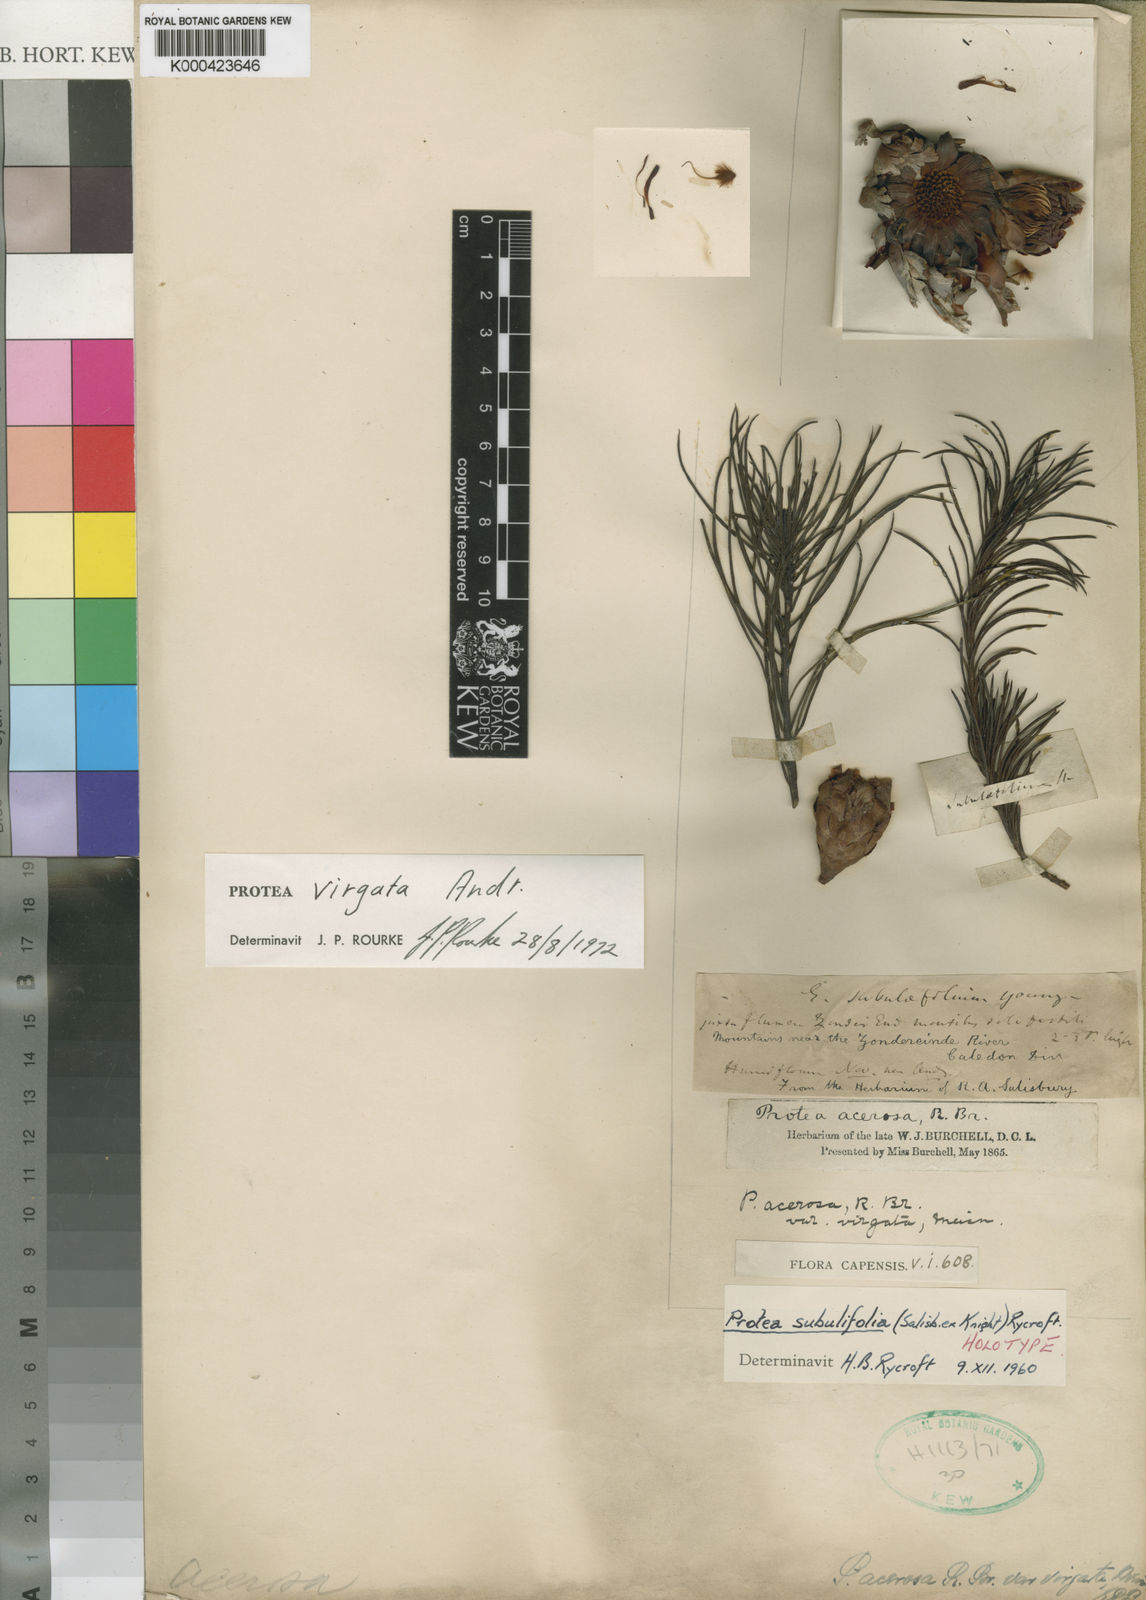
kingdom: Plantae
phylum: Tracheophyta
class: Magnoliopsida
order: Proteales
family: Proteaceae
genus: Protea
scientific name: Protea subulifolia
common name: Awl-leaf sugarbush
